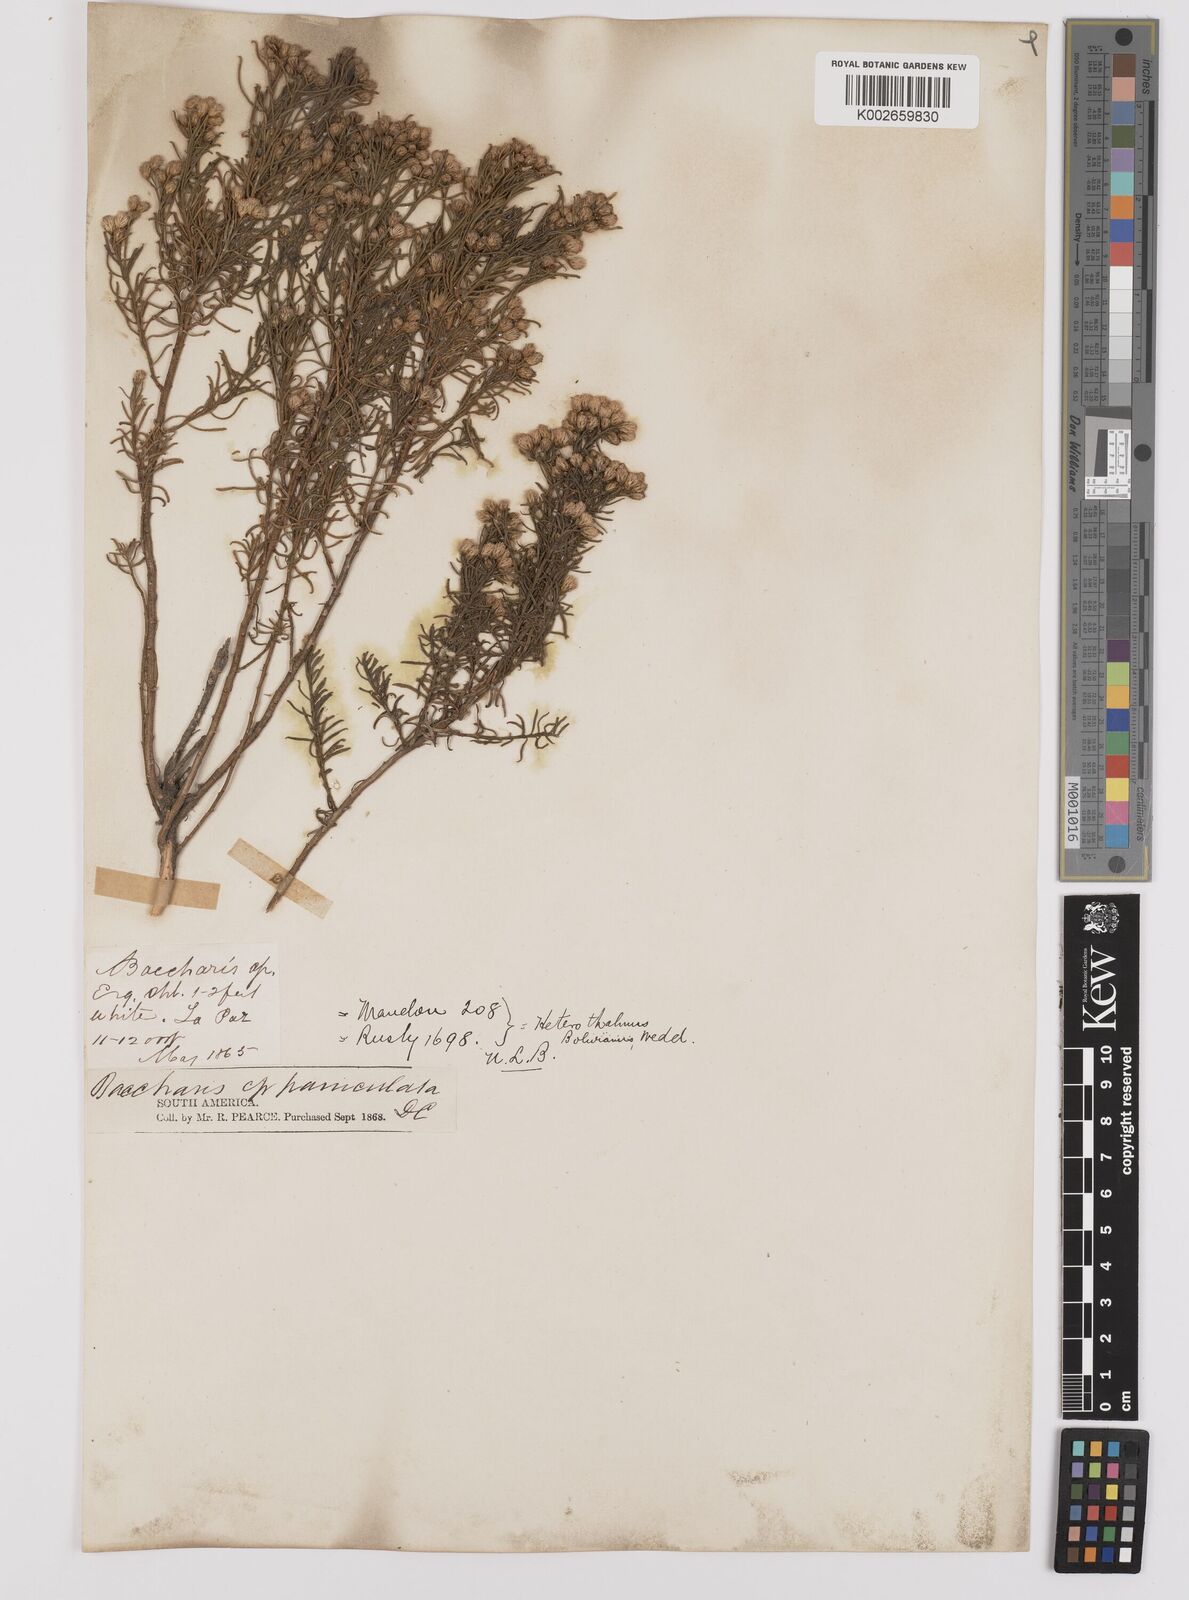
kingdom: Plantae
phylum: Tracheophyta
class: Magnoliopsida
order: Asterales
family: Asteraceae
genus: Baccharis
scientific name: Baccharis bolivensis
